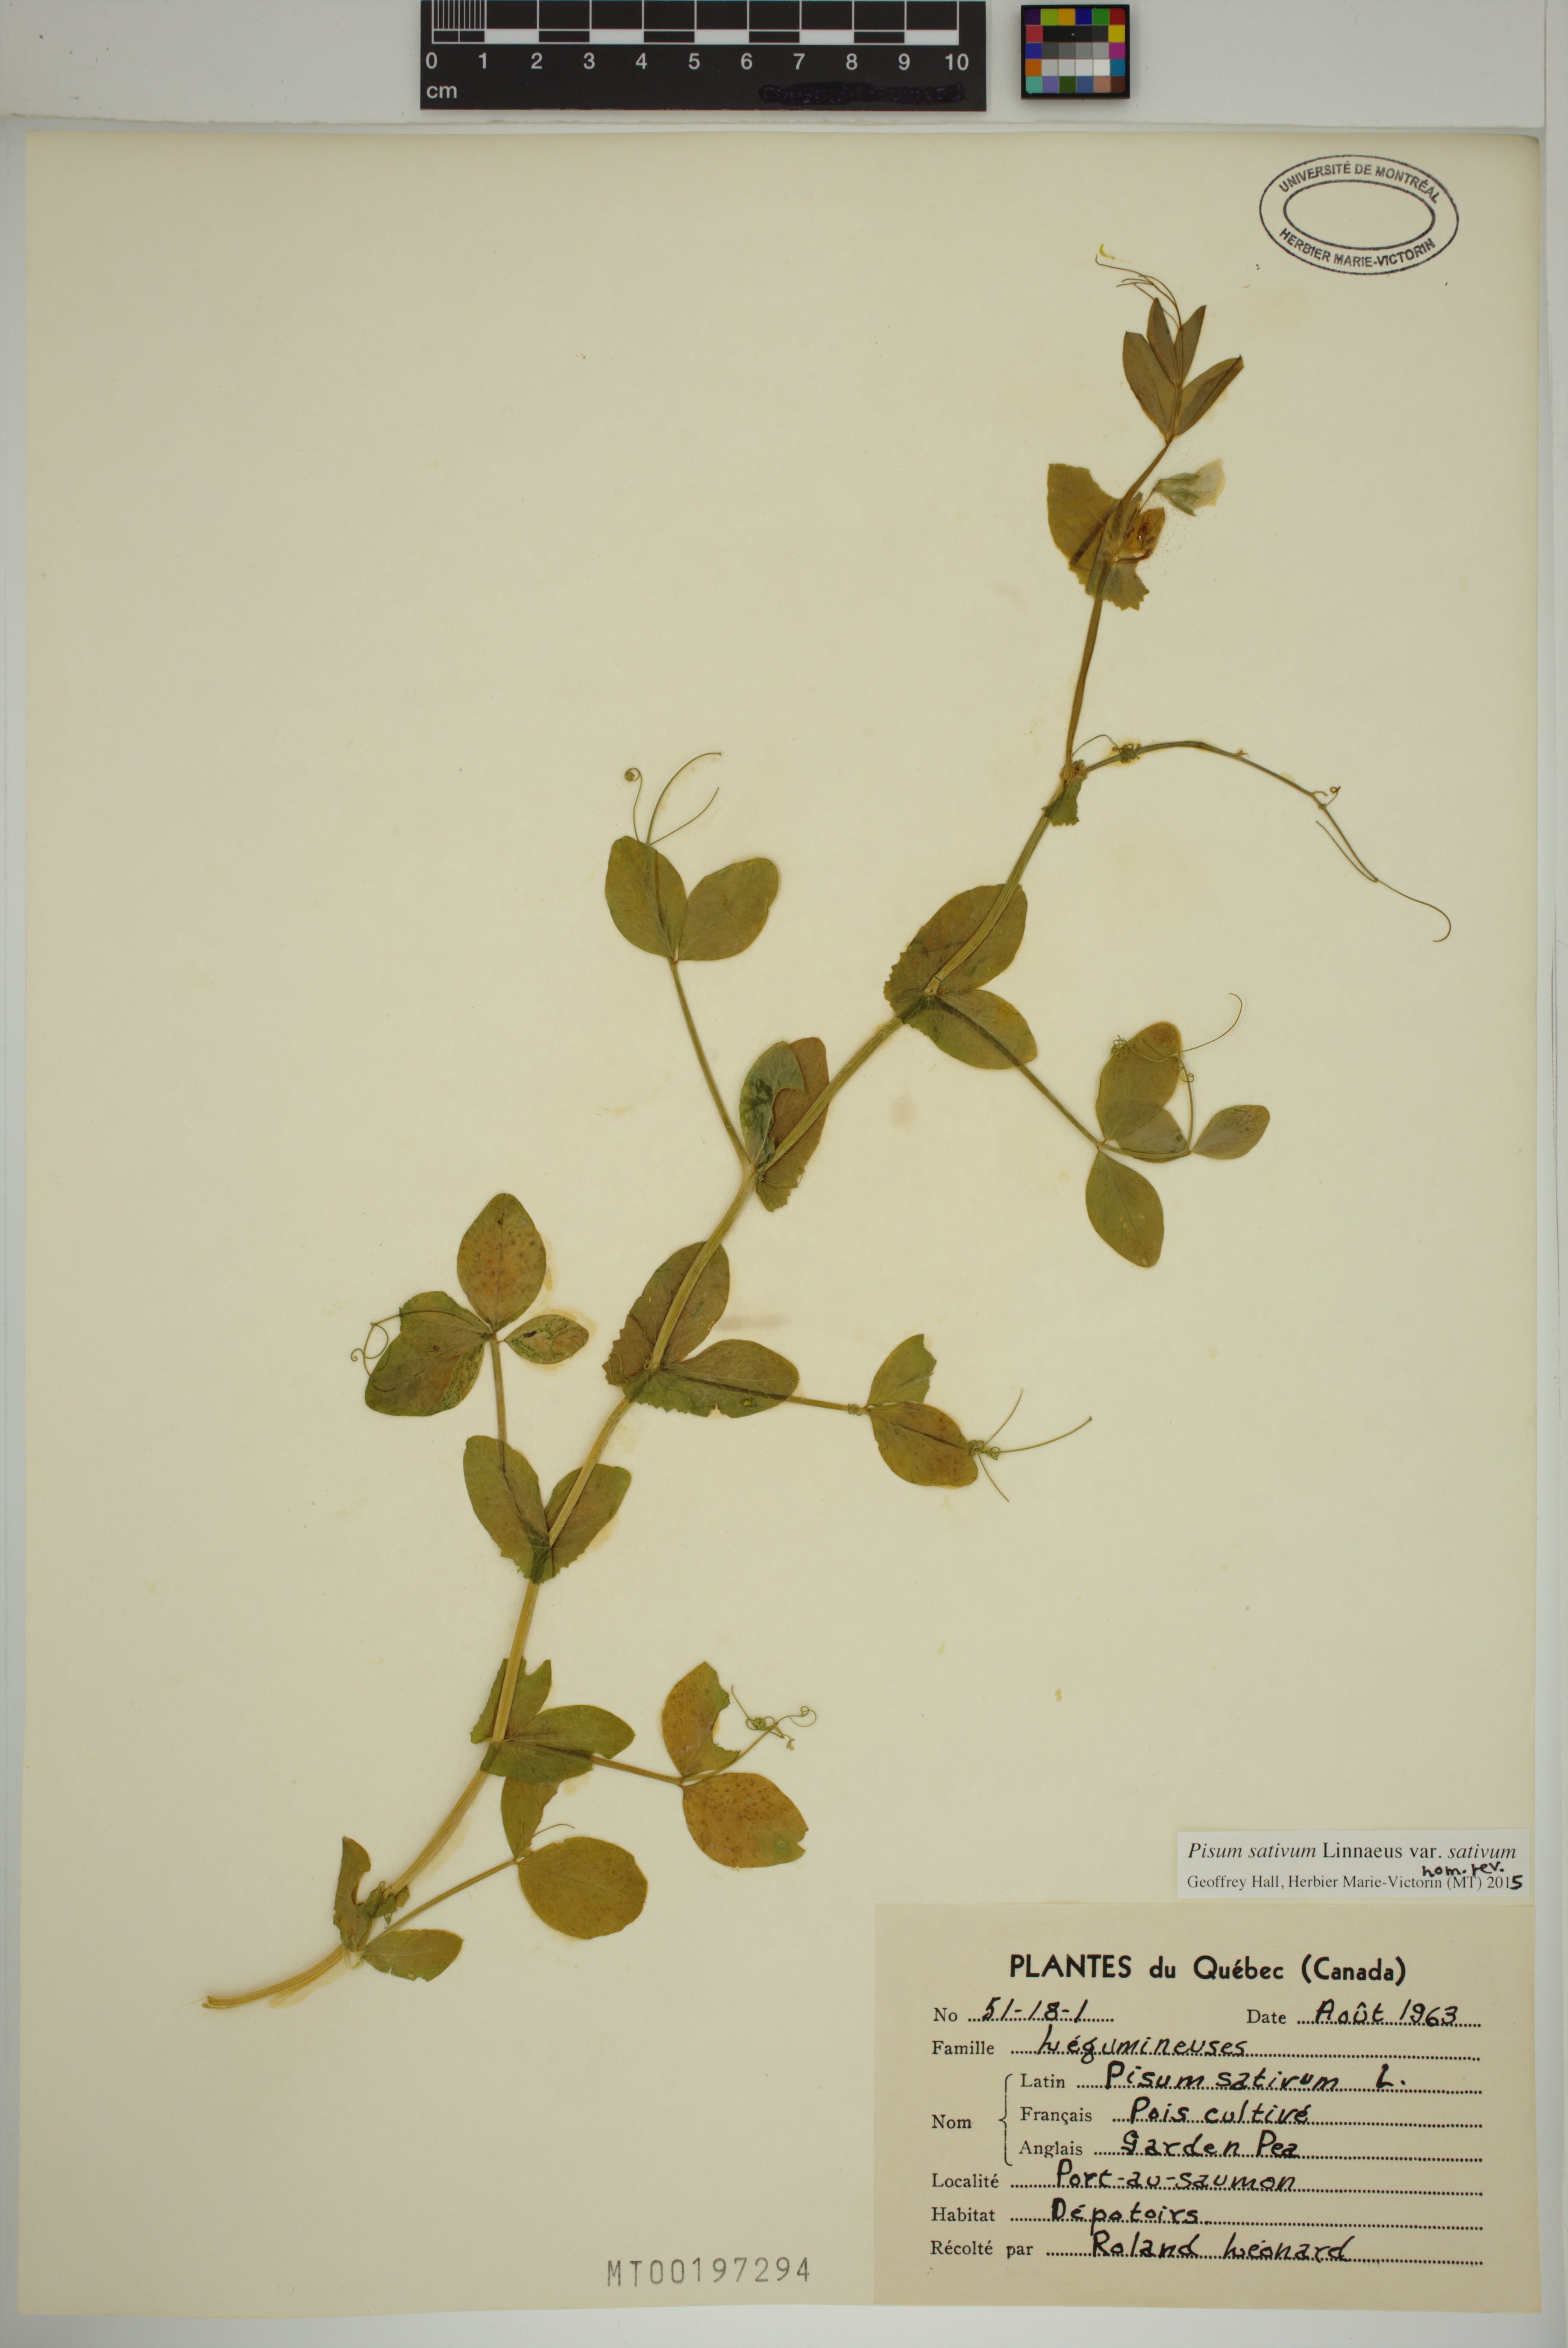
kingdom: Plantae
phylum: Tracheophyta
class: Magnoliopsida
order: Fabales
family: Fabaceae
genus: Lathyrus
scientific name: Lathyrus oleraceus
